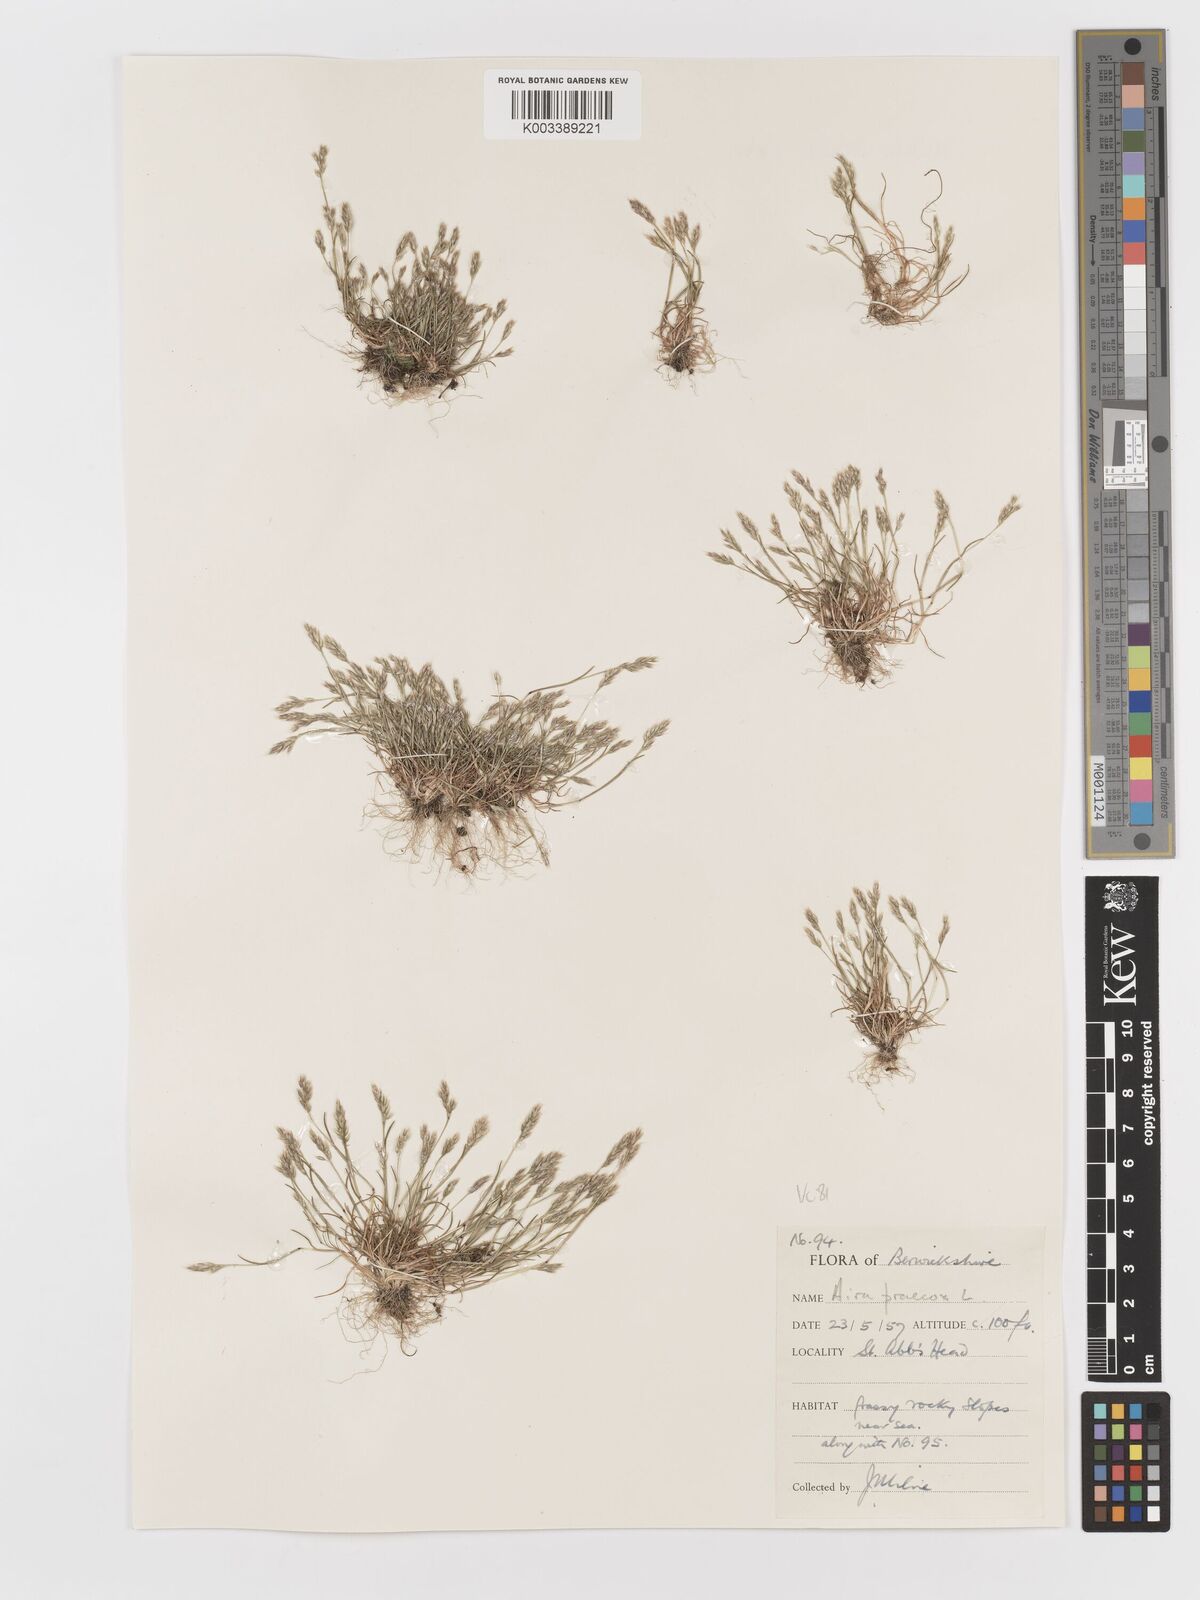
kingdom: Plantae
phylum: Tracheophyta
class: Liliopsida
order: Poales
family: Poaceae
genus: Aira
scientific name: Aira praecox
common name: Early hair-grass
